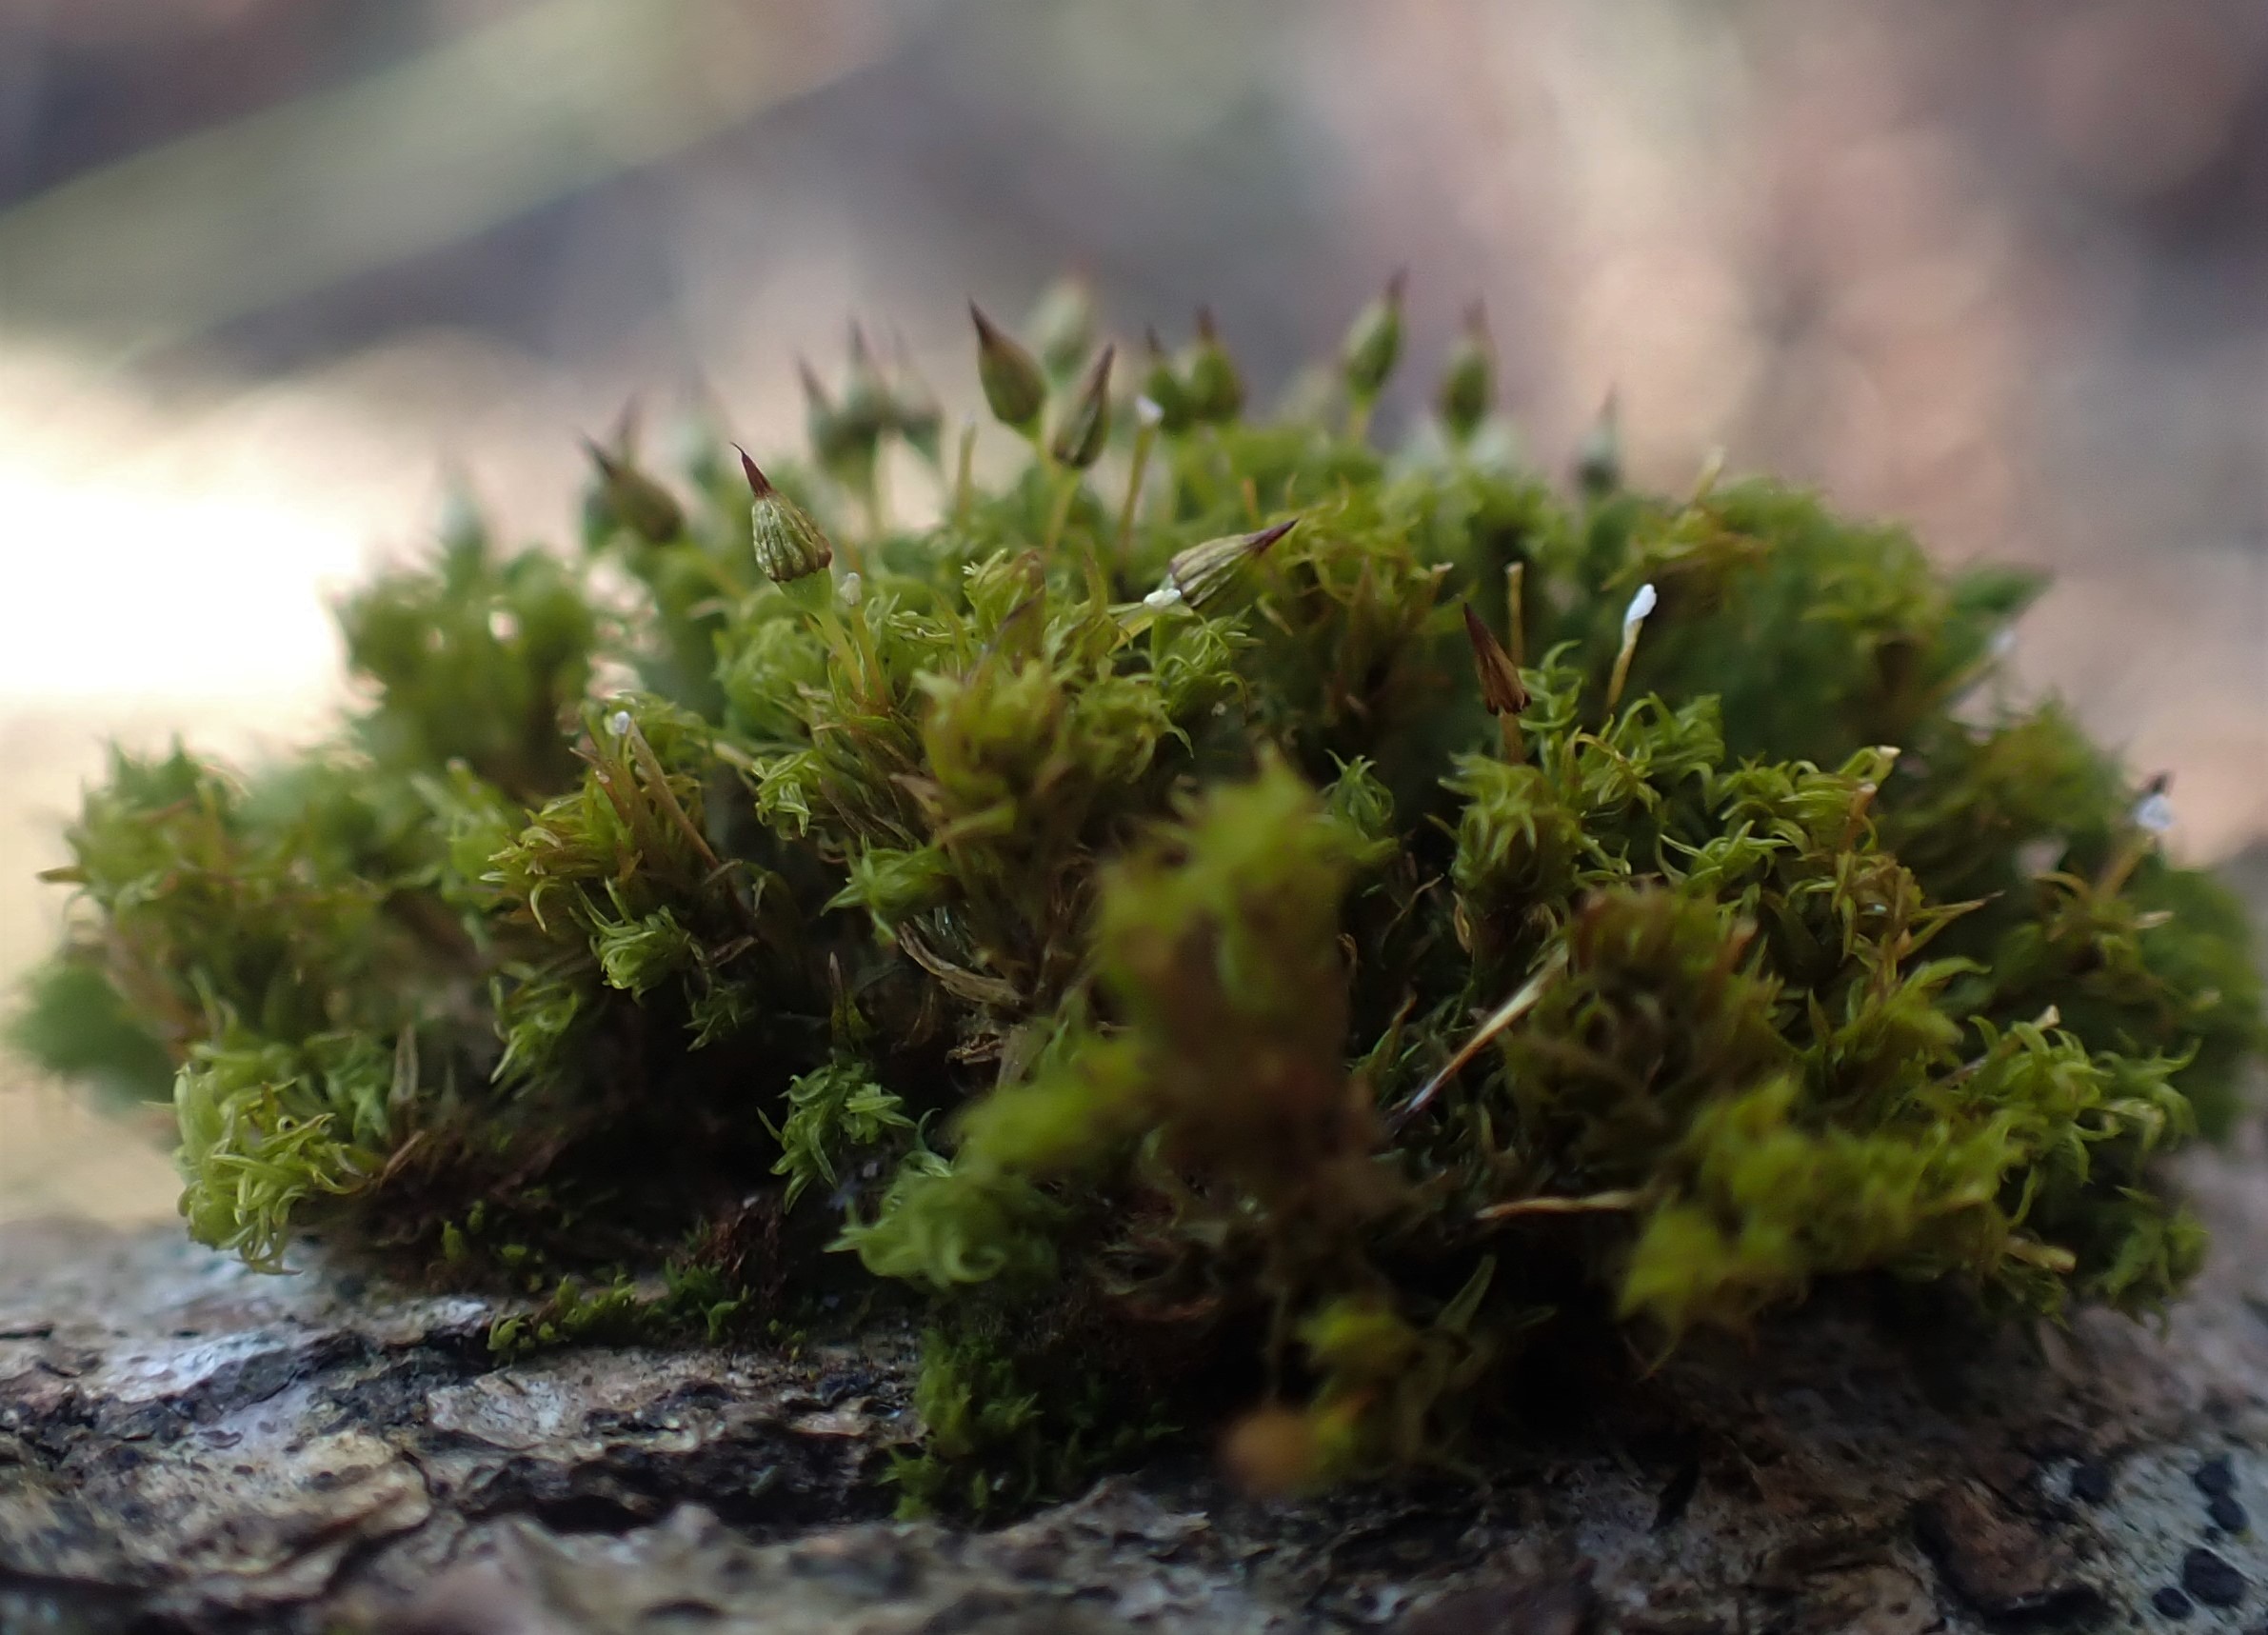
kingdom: Plantae
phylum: Bryophyta
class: Bryopsida
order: Orthotrichales
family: Orthotrichaceae
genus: Orthotrichum
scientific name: Orthotrichum pulchellum
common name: Smuk furehætte
